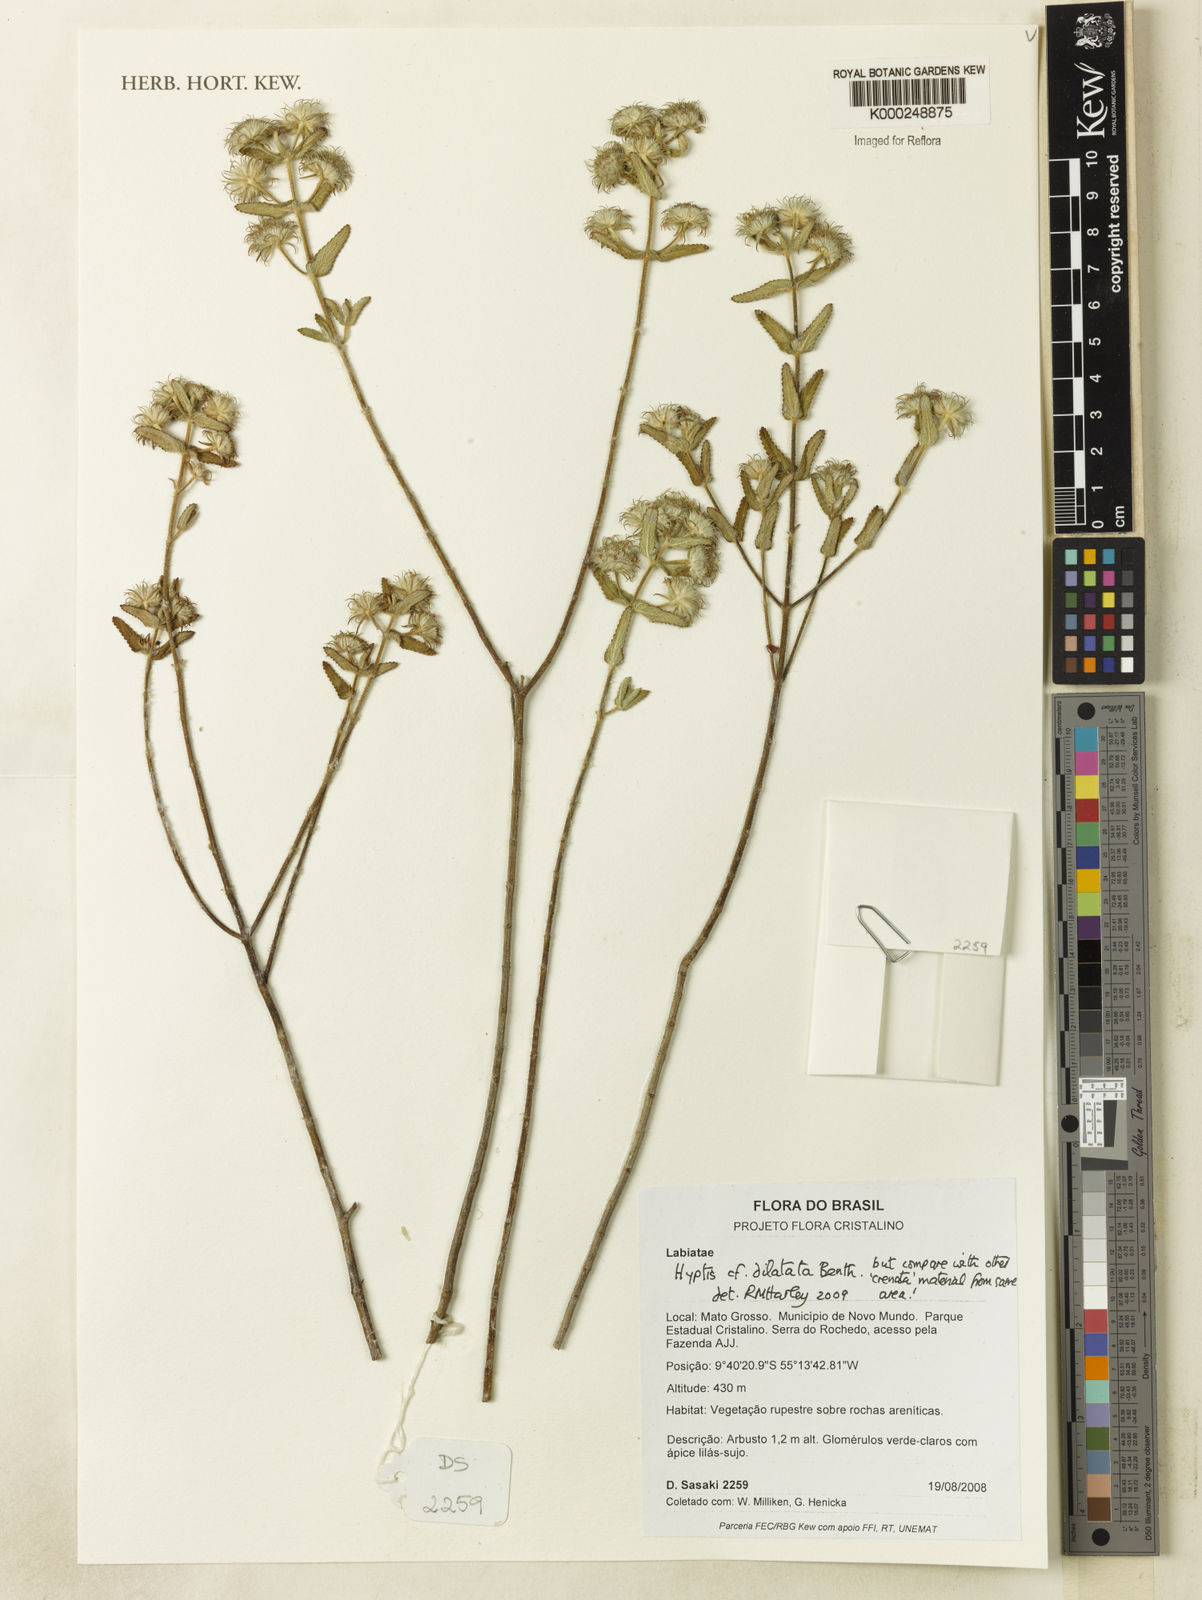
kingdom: Plantae
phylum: Tracheophyta
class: Magnoliopsida
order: Lamiales
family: Lamiaceae
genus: Hyptis
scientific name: Hyptis dilatata
